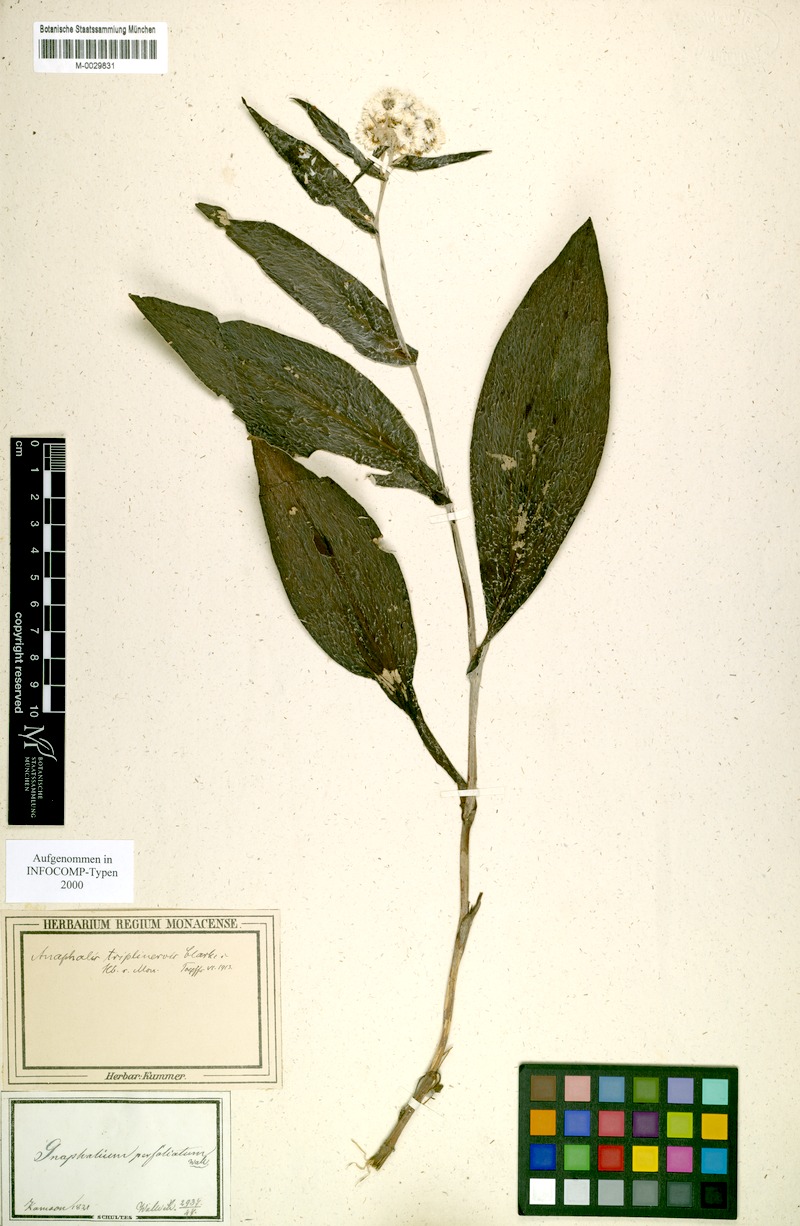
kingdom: Plantae
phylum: Tracheophyta
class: Magnoliopsida
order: Asterales
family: Asteraceae
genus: Anaphalis
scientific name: Anaphalis triplinervis
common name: Pearly everlasting
